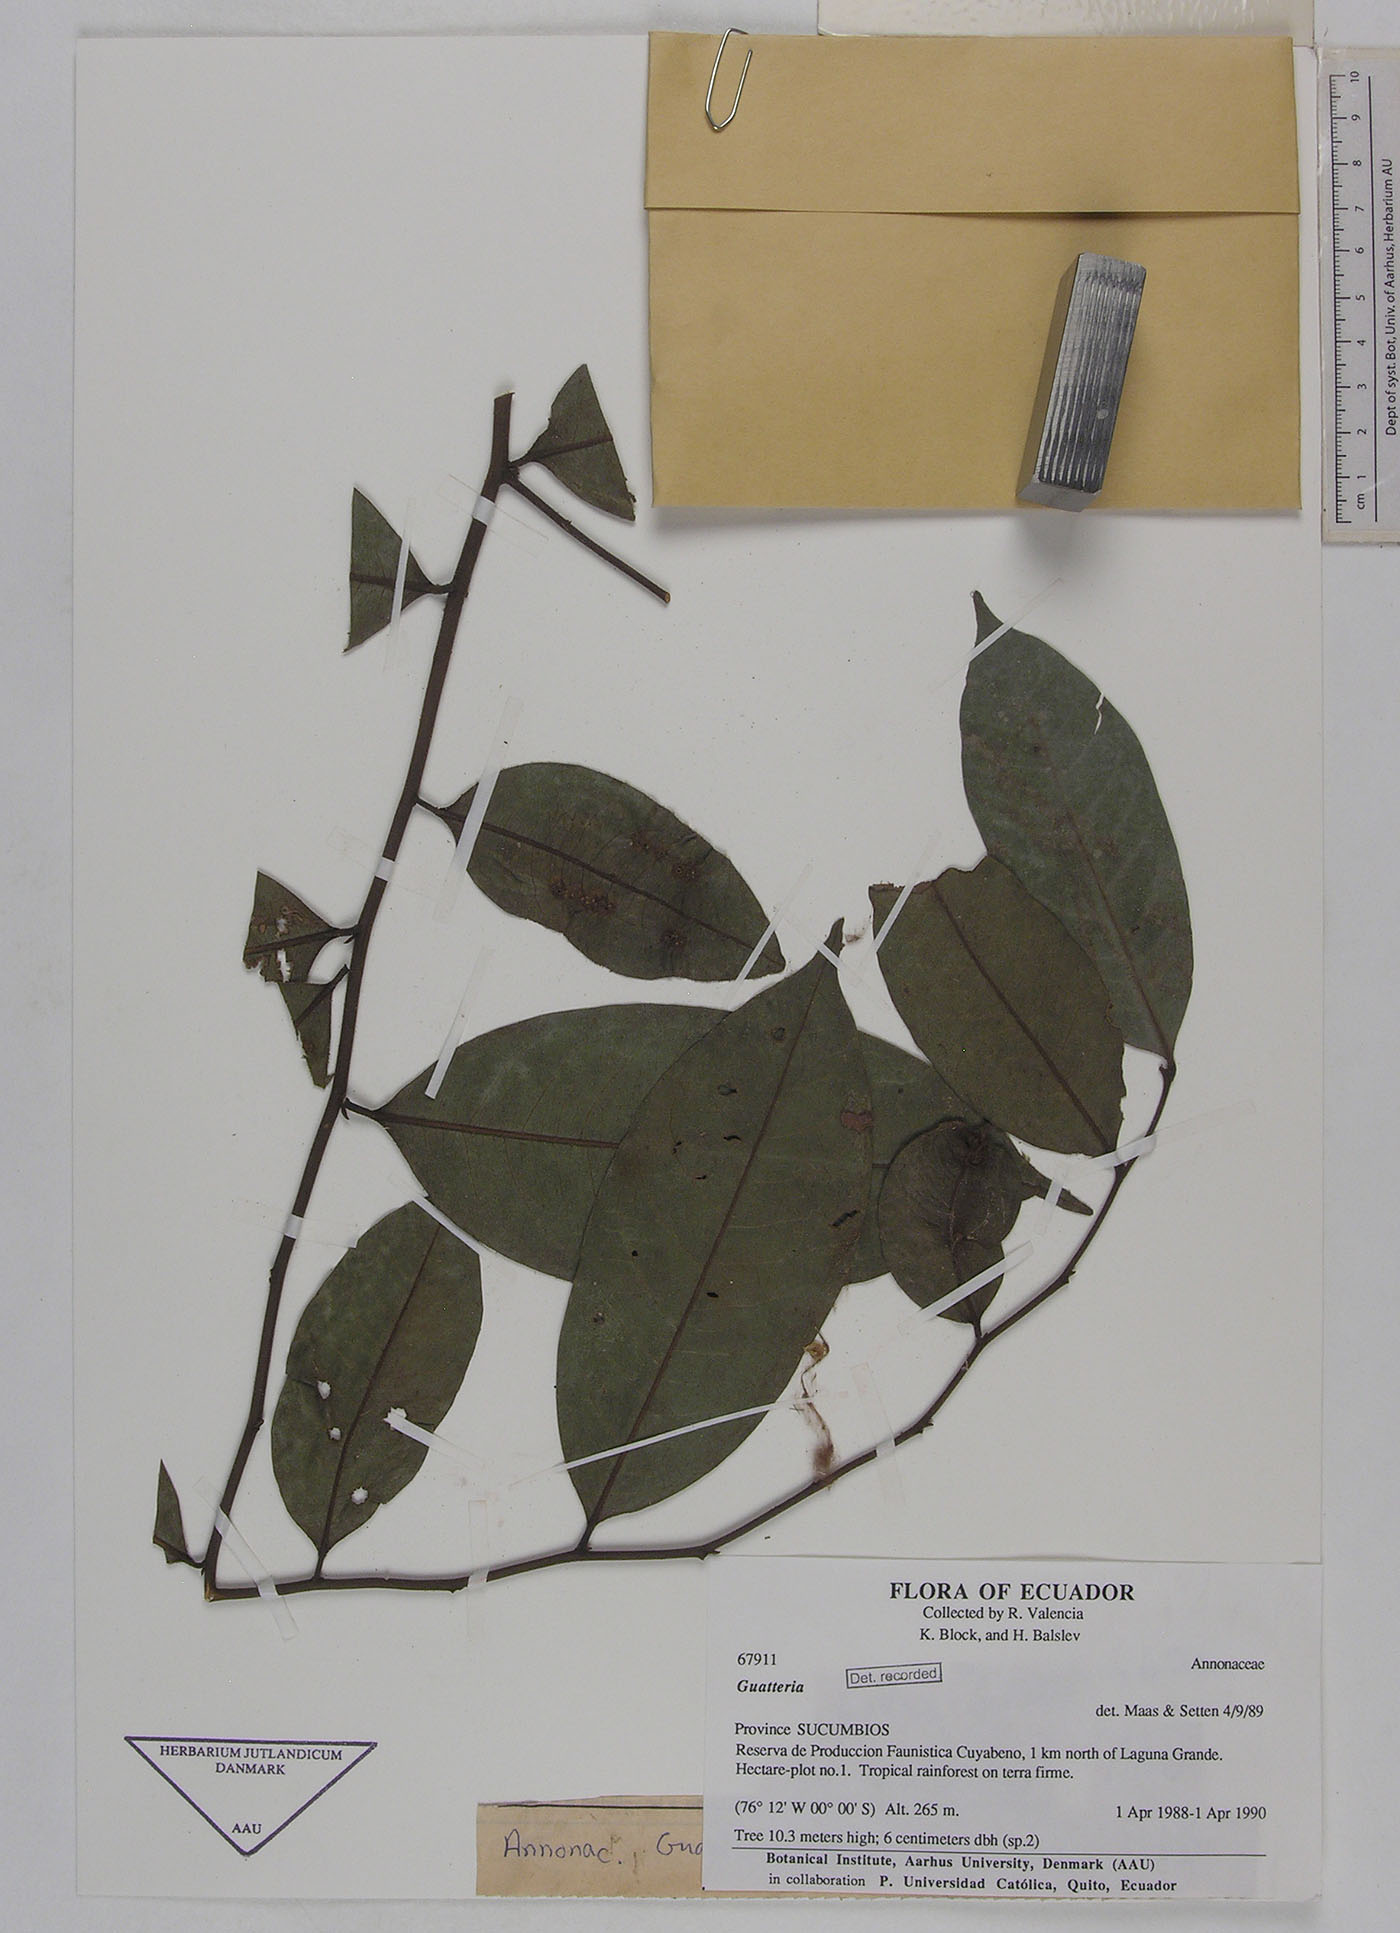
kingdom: Plantae
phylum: Tracheophyta
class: Magnoliopsida
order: Magnoliales
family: Annonaceae
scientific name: Annonaceae
